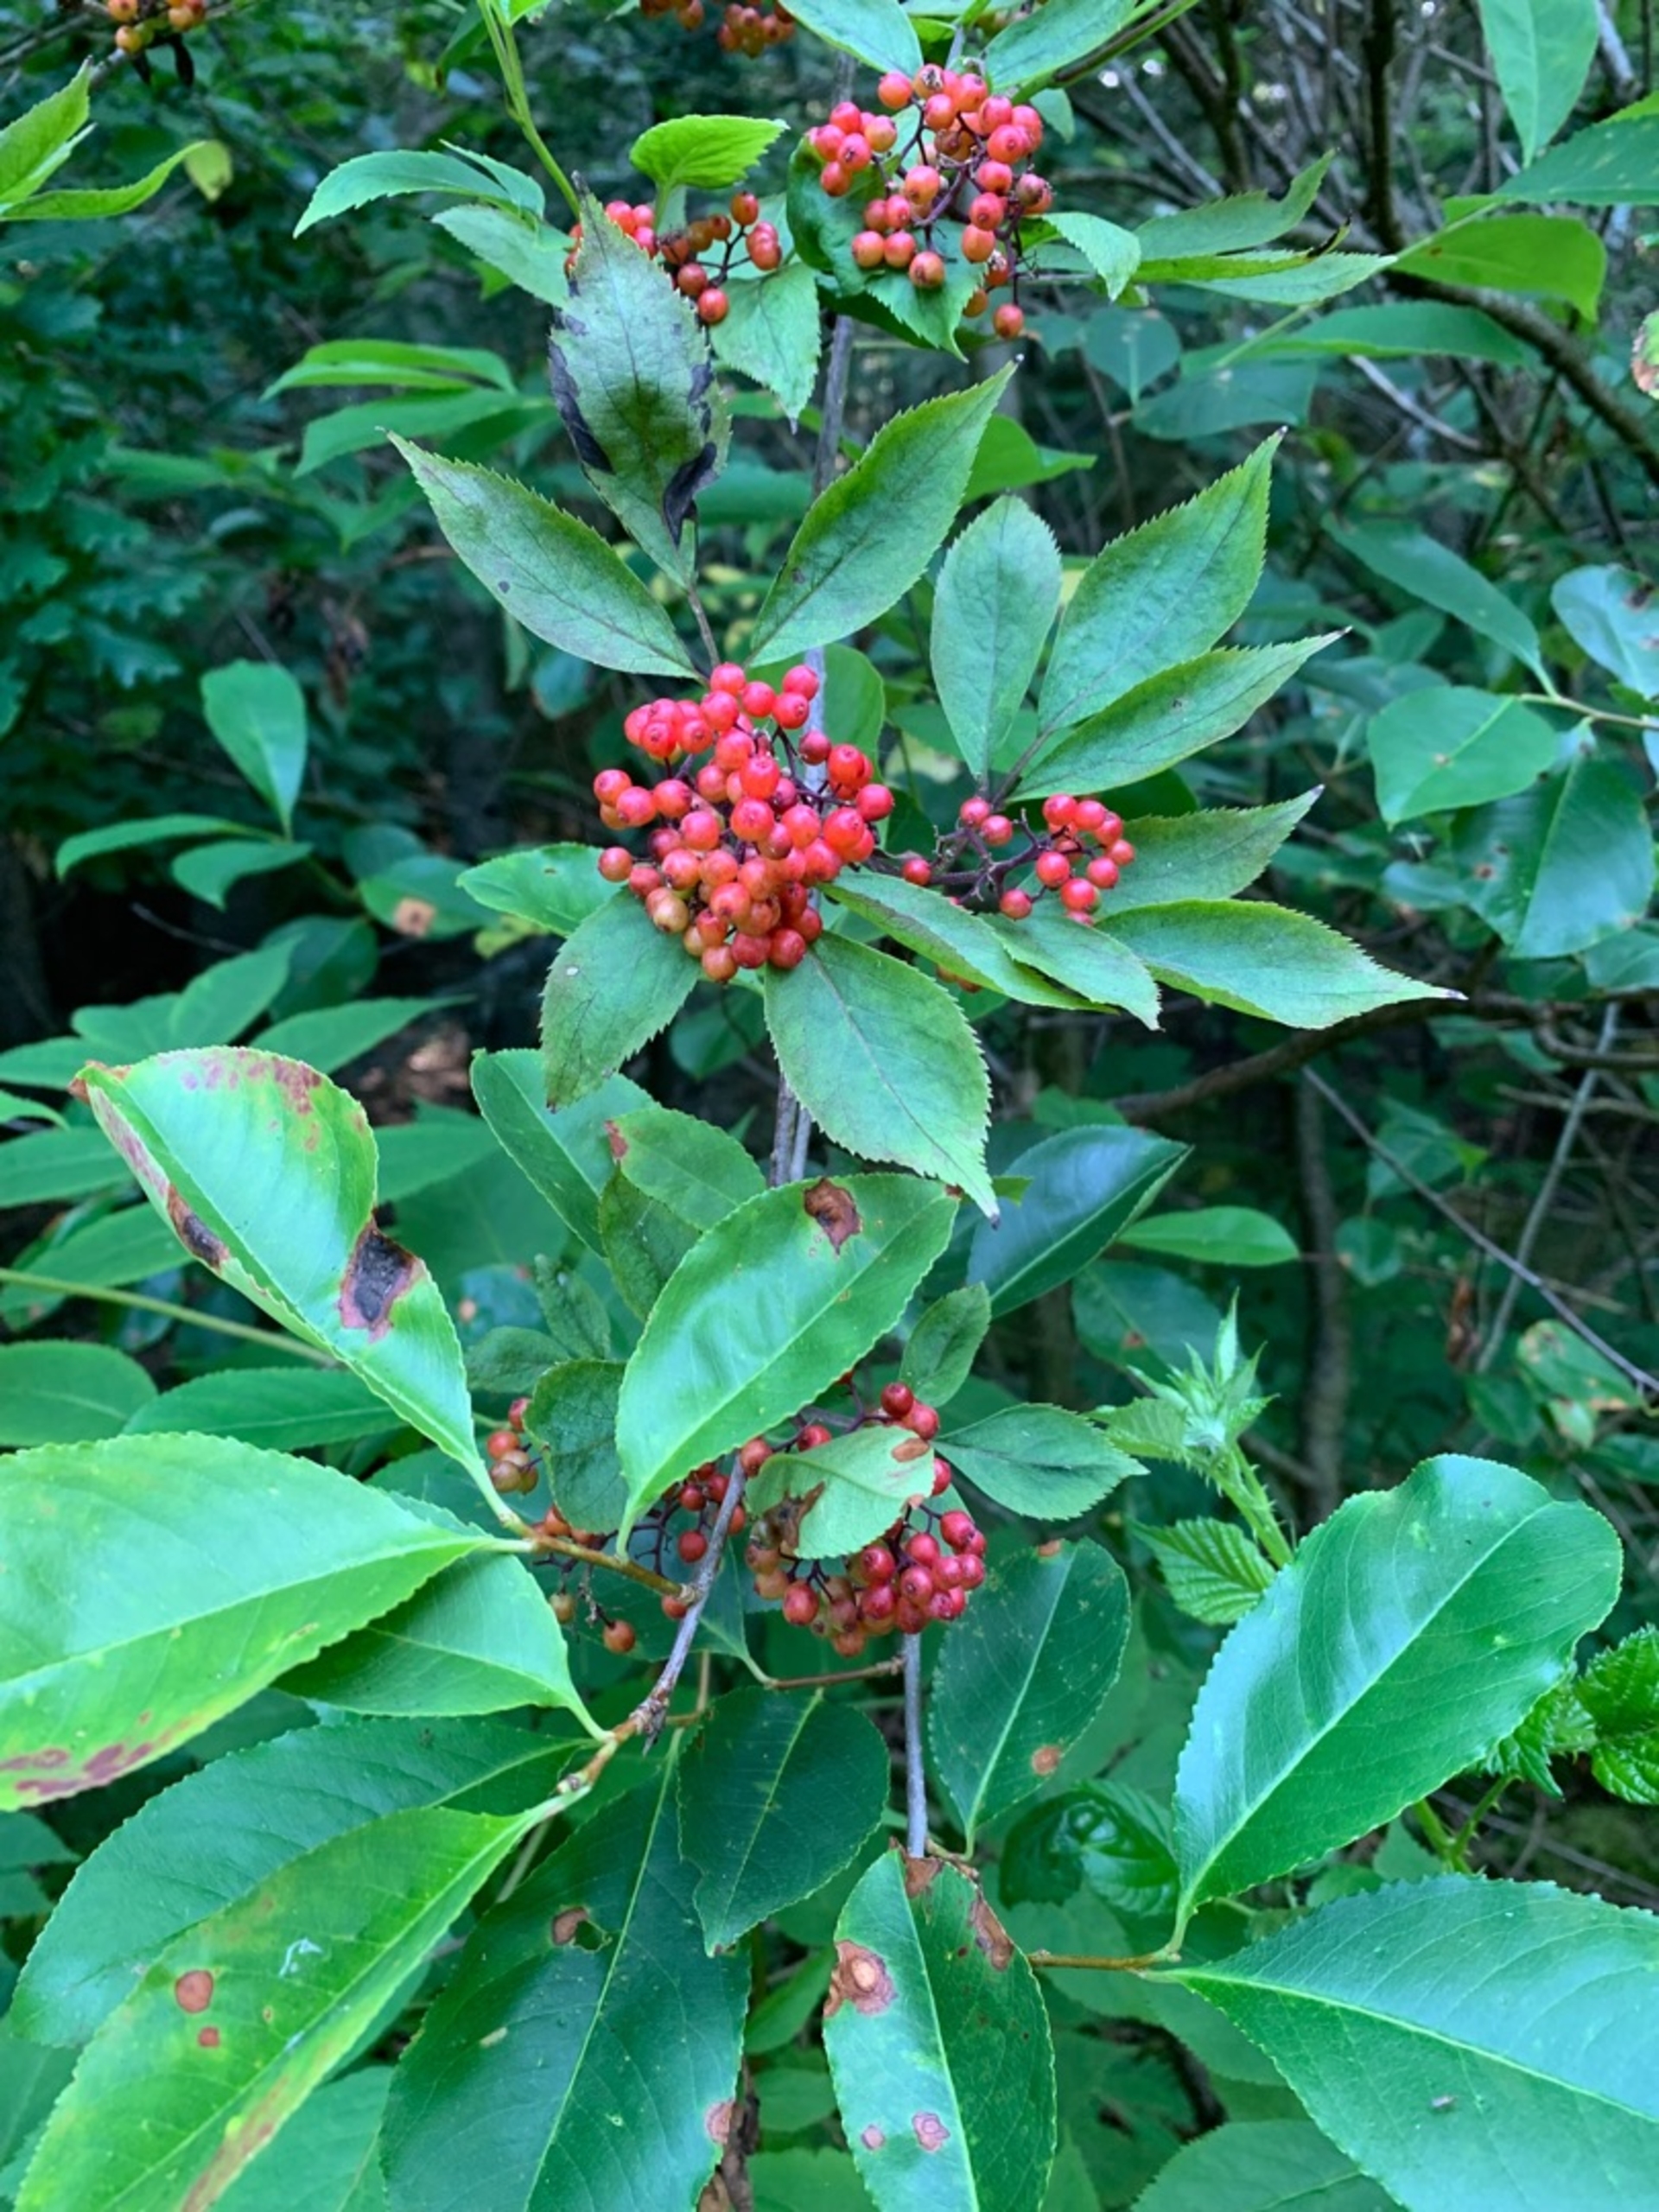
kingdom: Plantae
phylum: Tracheophyta
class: Magnoliopsida
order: Dipsacales
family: Viburnaceae
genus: Sambucus
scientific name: Sambucus racemosa
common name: Drue-hyld
